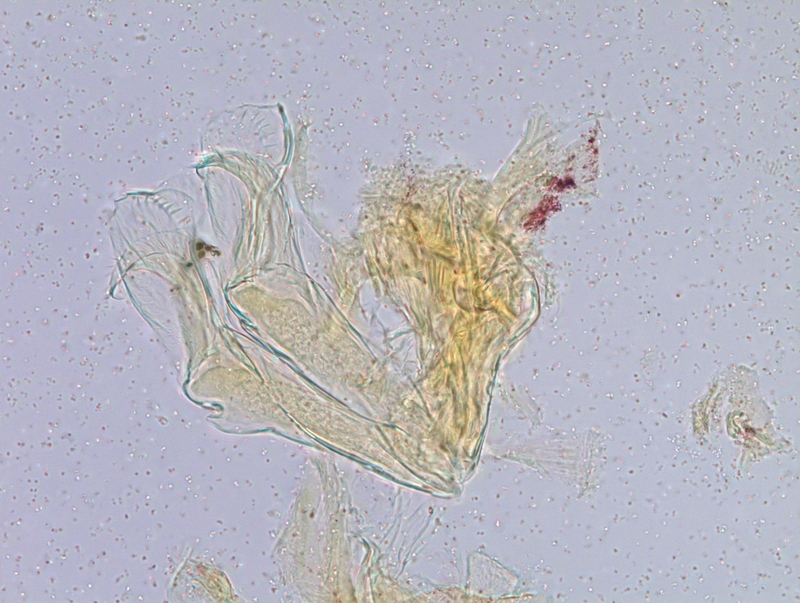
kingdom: Animalia
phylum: Arthropoda
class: Diplopoda
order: Julida
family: Blaniulidae
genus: Nopoiulus
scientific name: Nopoiulus kochii
